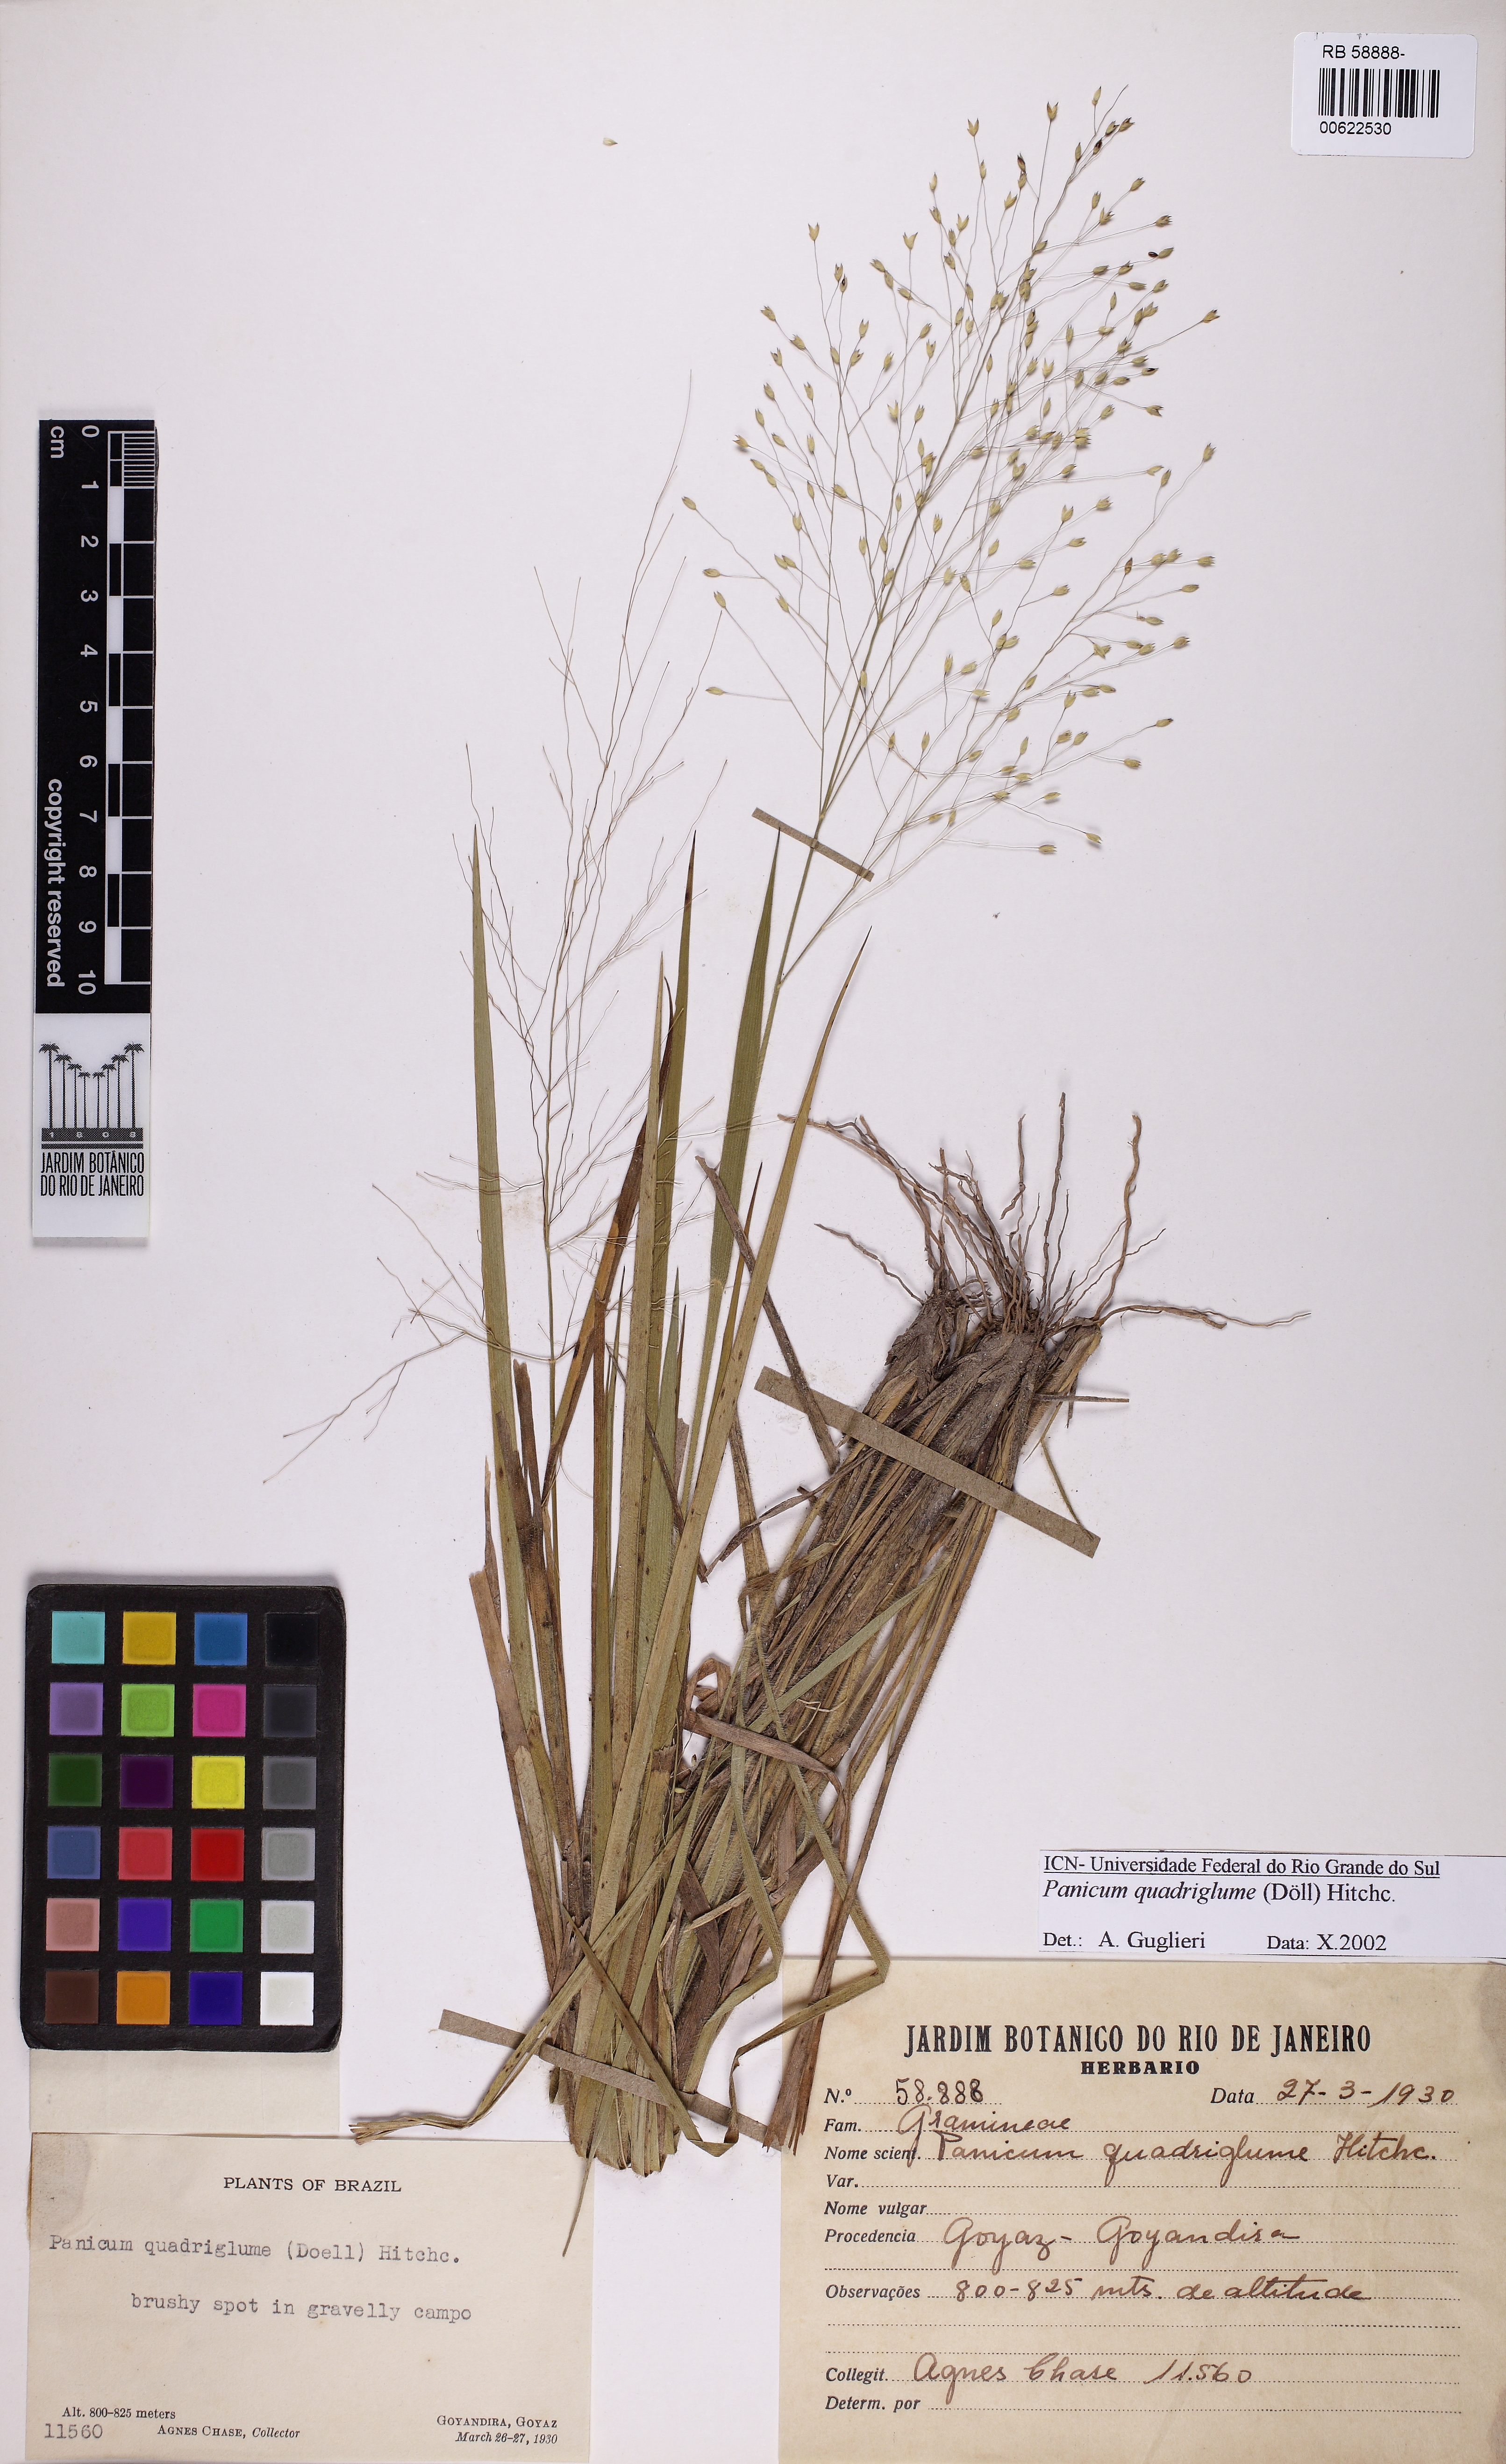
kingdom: Plantae
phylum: Tracheophyta
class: Liliopsida
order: Poales
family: Poaceae
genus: Panicum
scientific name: Panicum quadriglume
